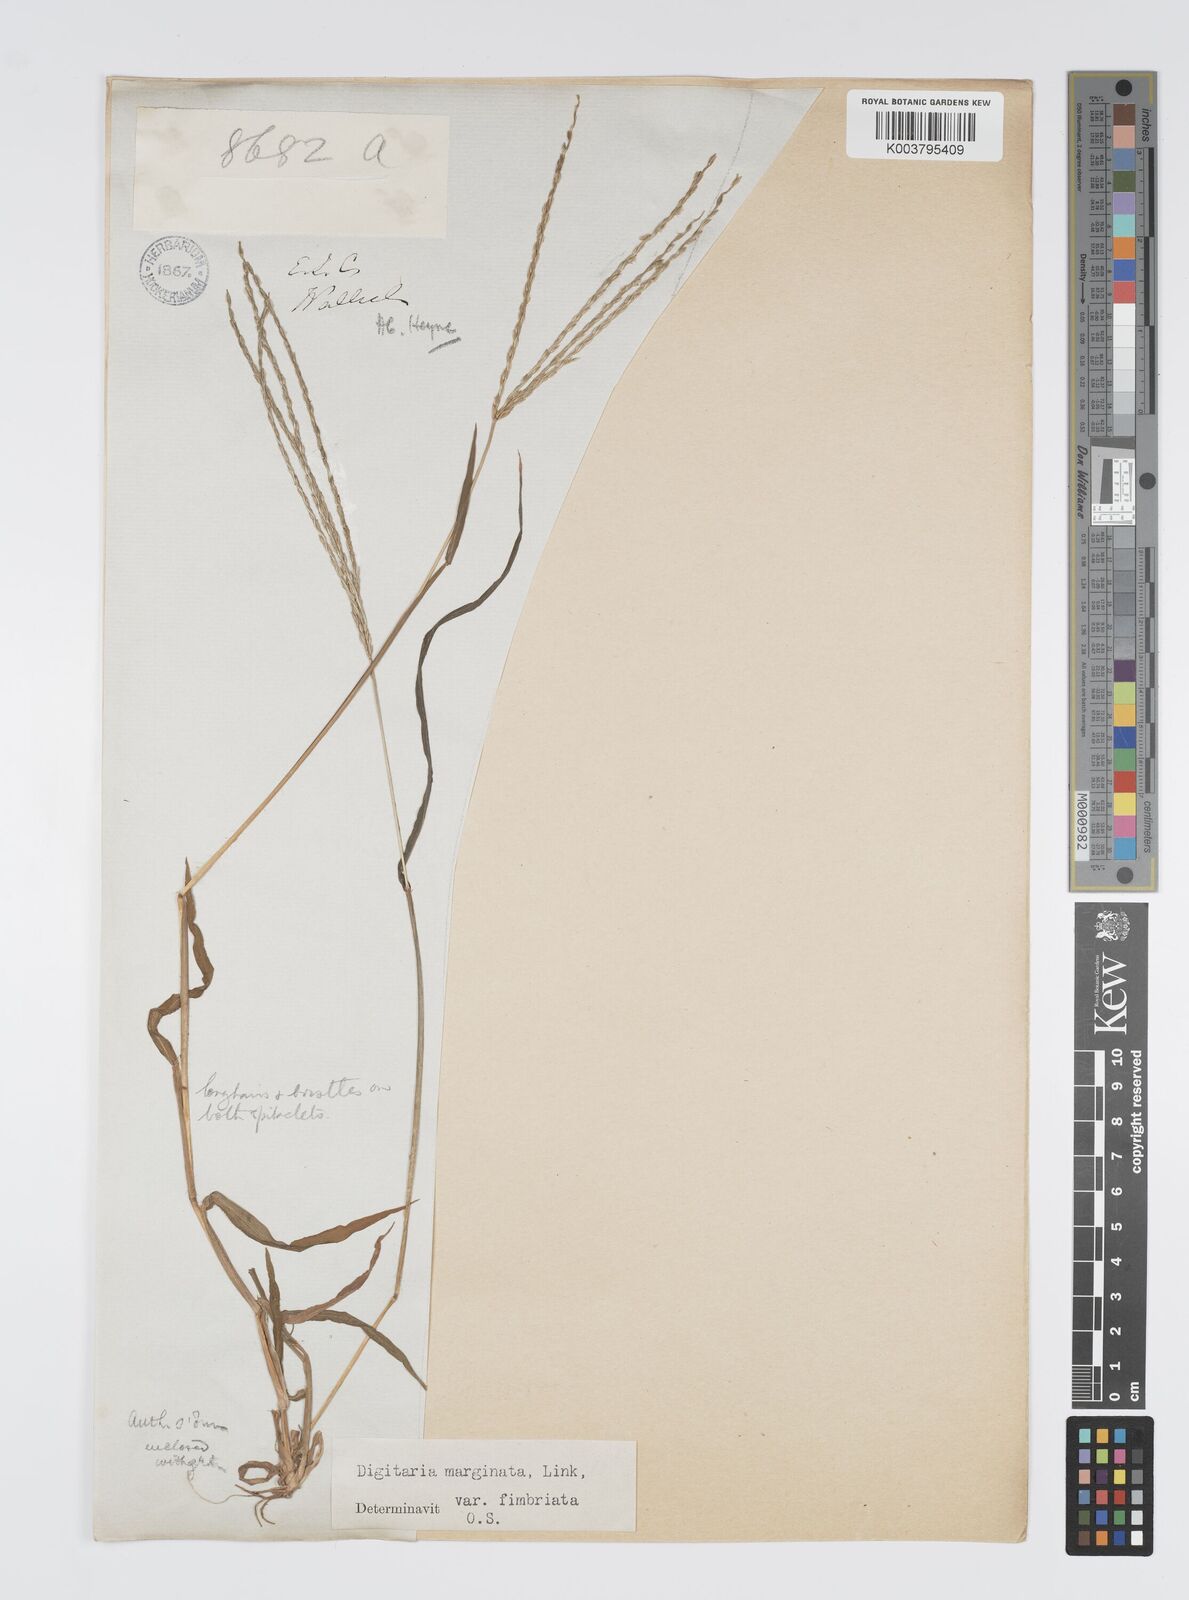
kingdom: Plantae
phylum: Tracheophyta
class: Liliopsida
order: Poales
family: Poaceae
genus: Digitaria
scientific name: Digitaria ciliaris
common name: Tropical finger-grass
